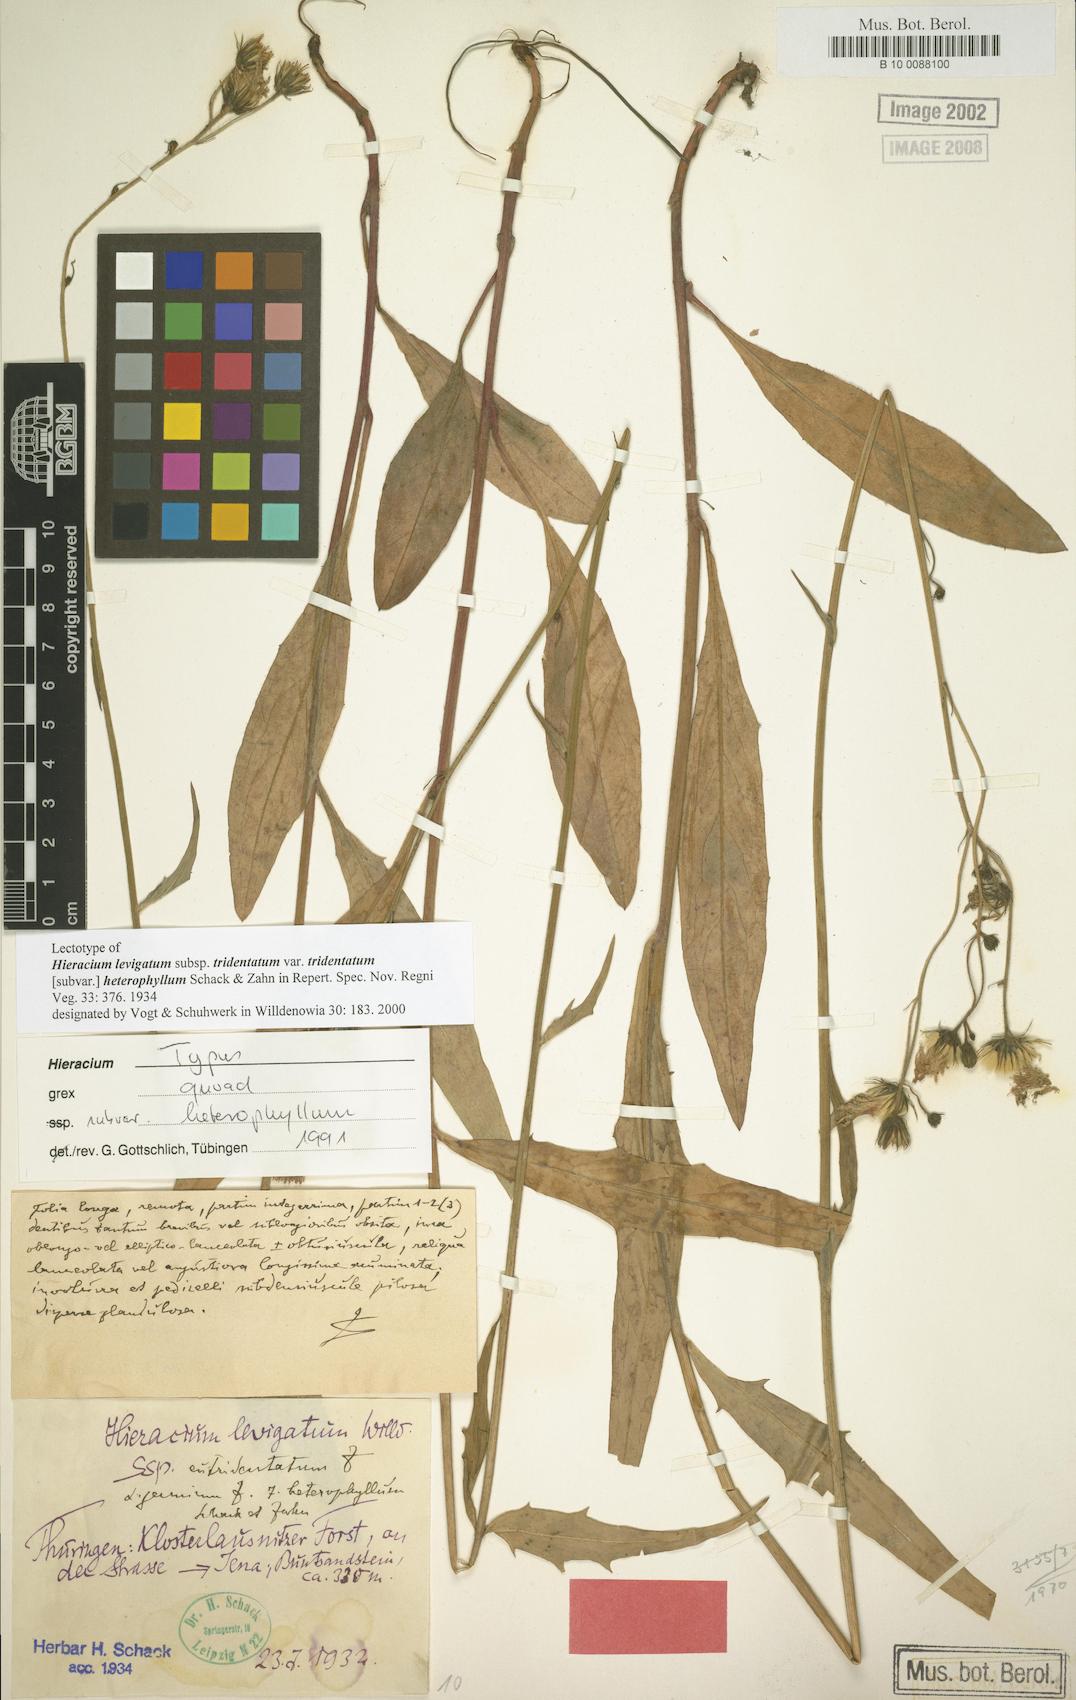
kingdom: Plantae
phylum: Tracheophyta
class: Magnoliopsida
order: Asterales
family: Asteraceae
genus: Hieracium
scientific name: Hieracium laevigatum
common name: Smooth hawkweed
